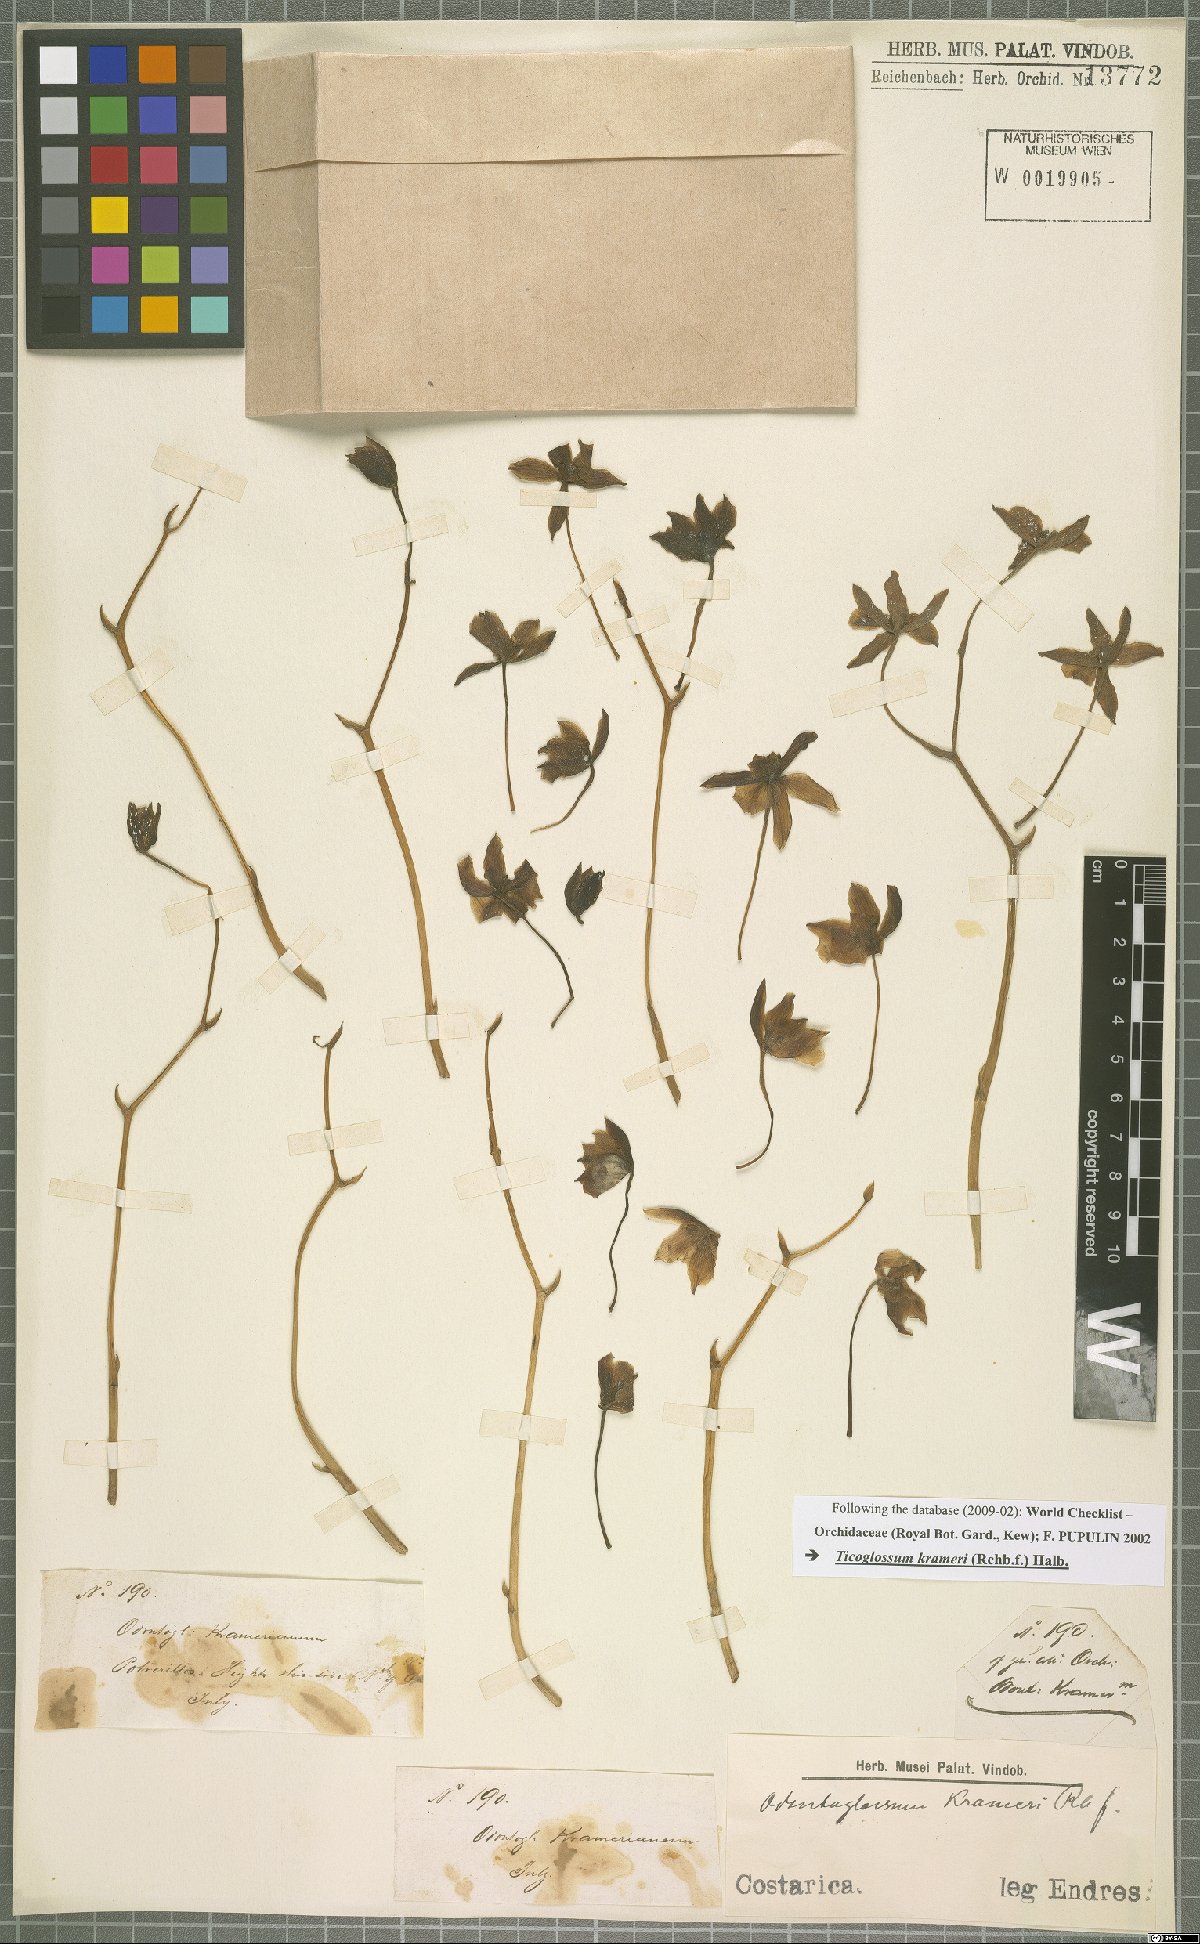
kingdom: Plantae
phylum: Tracheophyta
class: Liliopsida
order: Asparagales
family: Orchidaceae
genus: Rossioglossum
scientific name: Rossioglossum krameri
